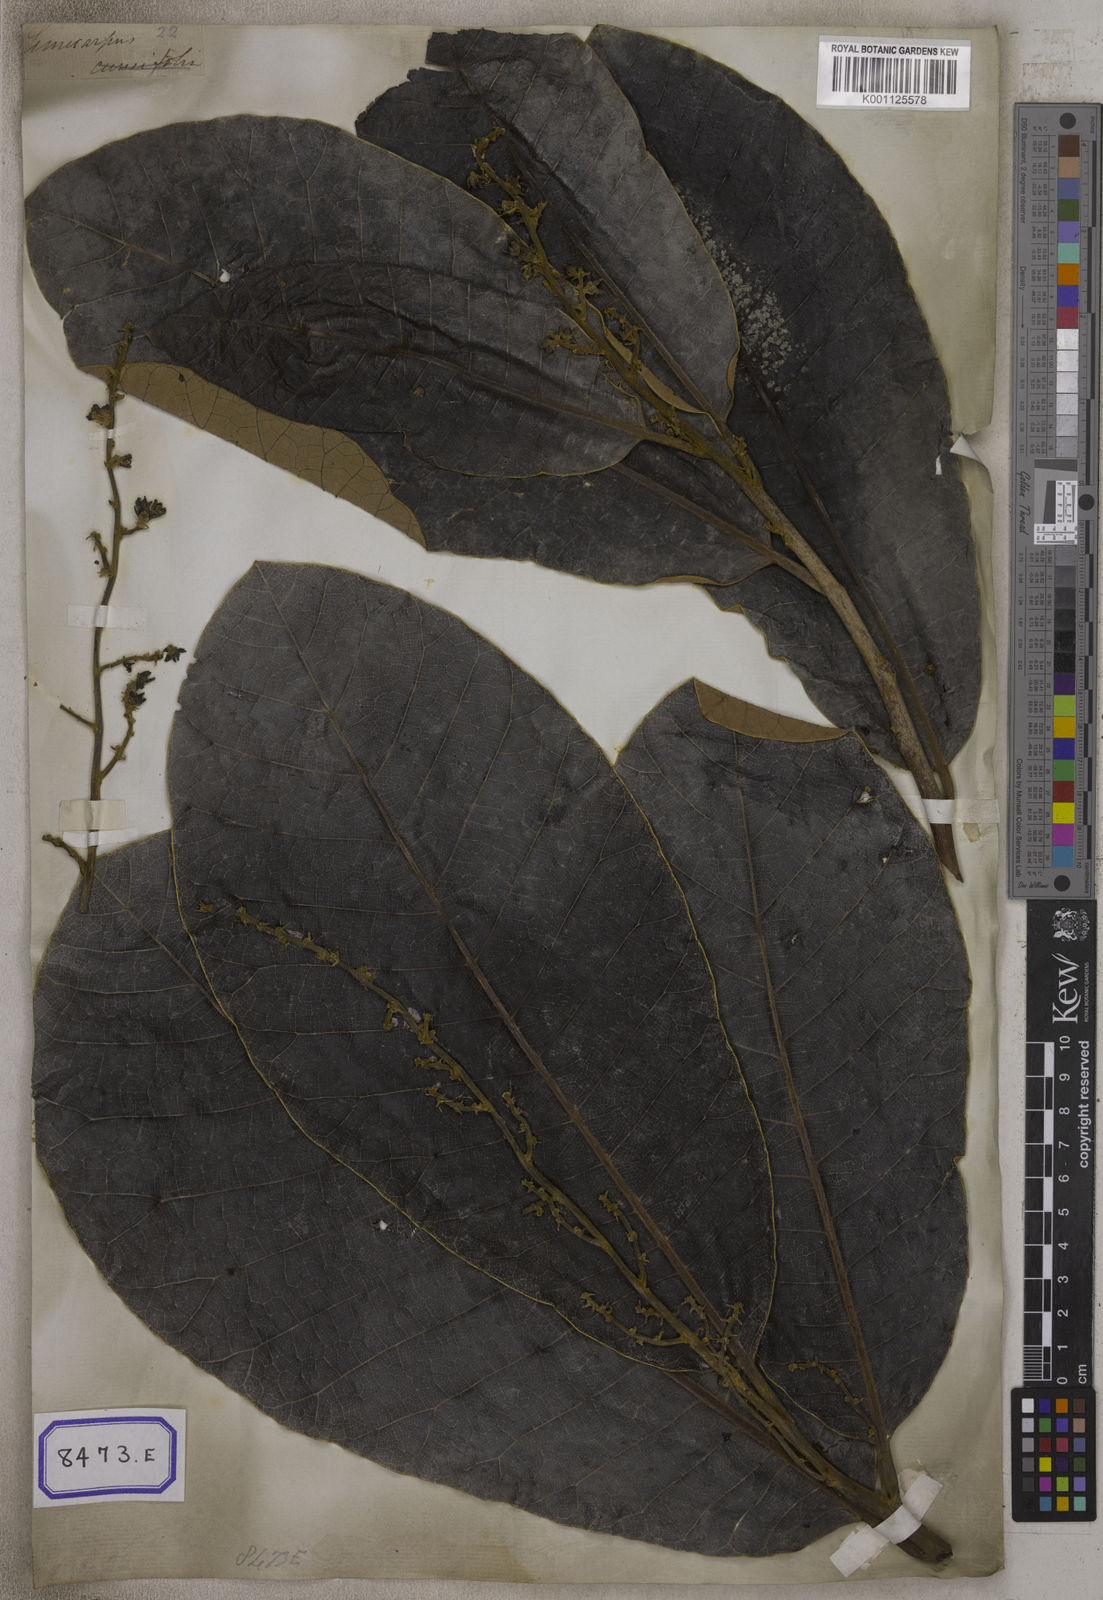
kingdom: Plantae
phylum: Tracheophyta
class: Magnoliopsida
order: Sapindales
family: Anacardiaceae
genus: Semecarpus
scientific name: Semecarpus anacardium
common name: Marking nut-tree
